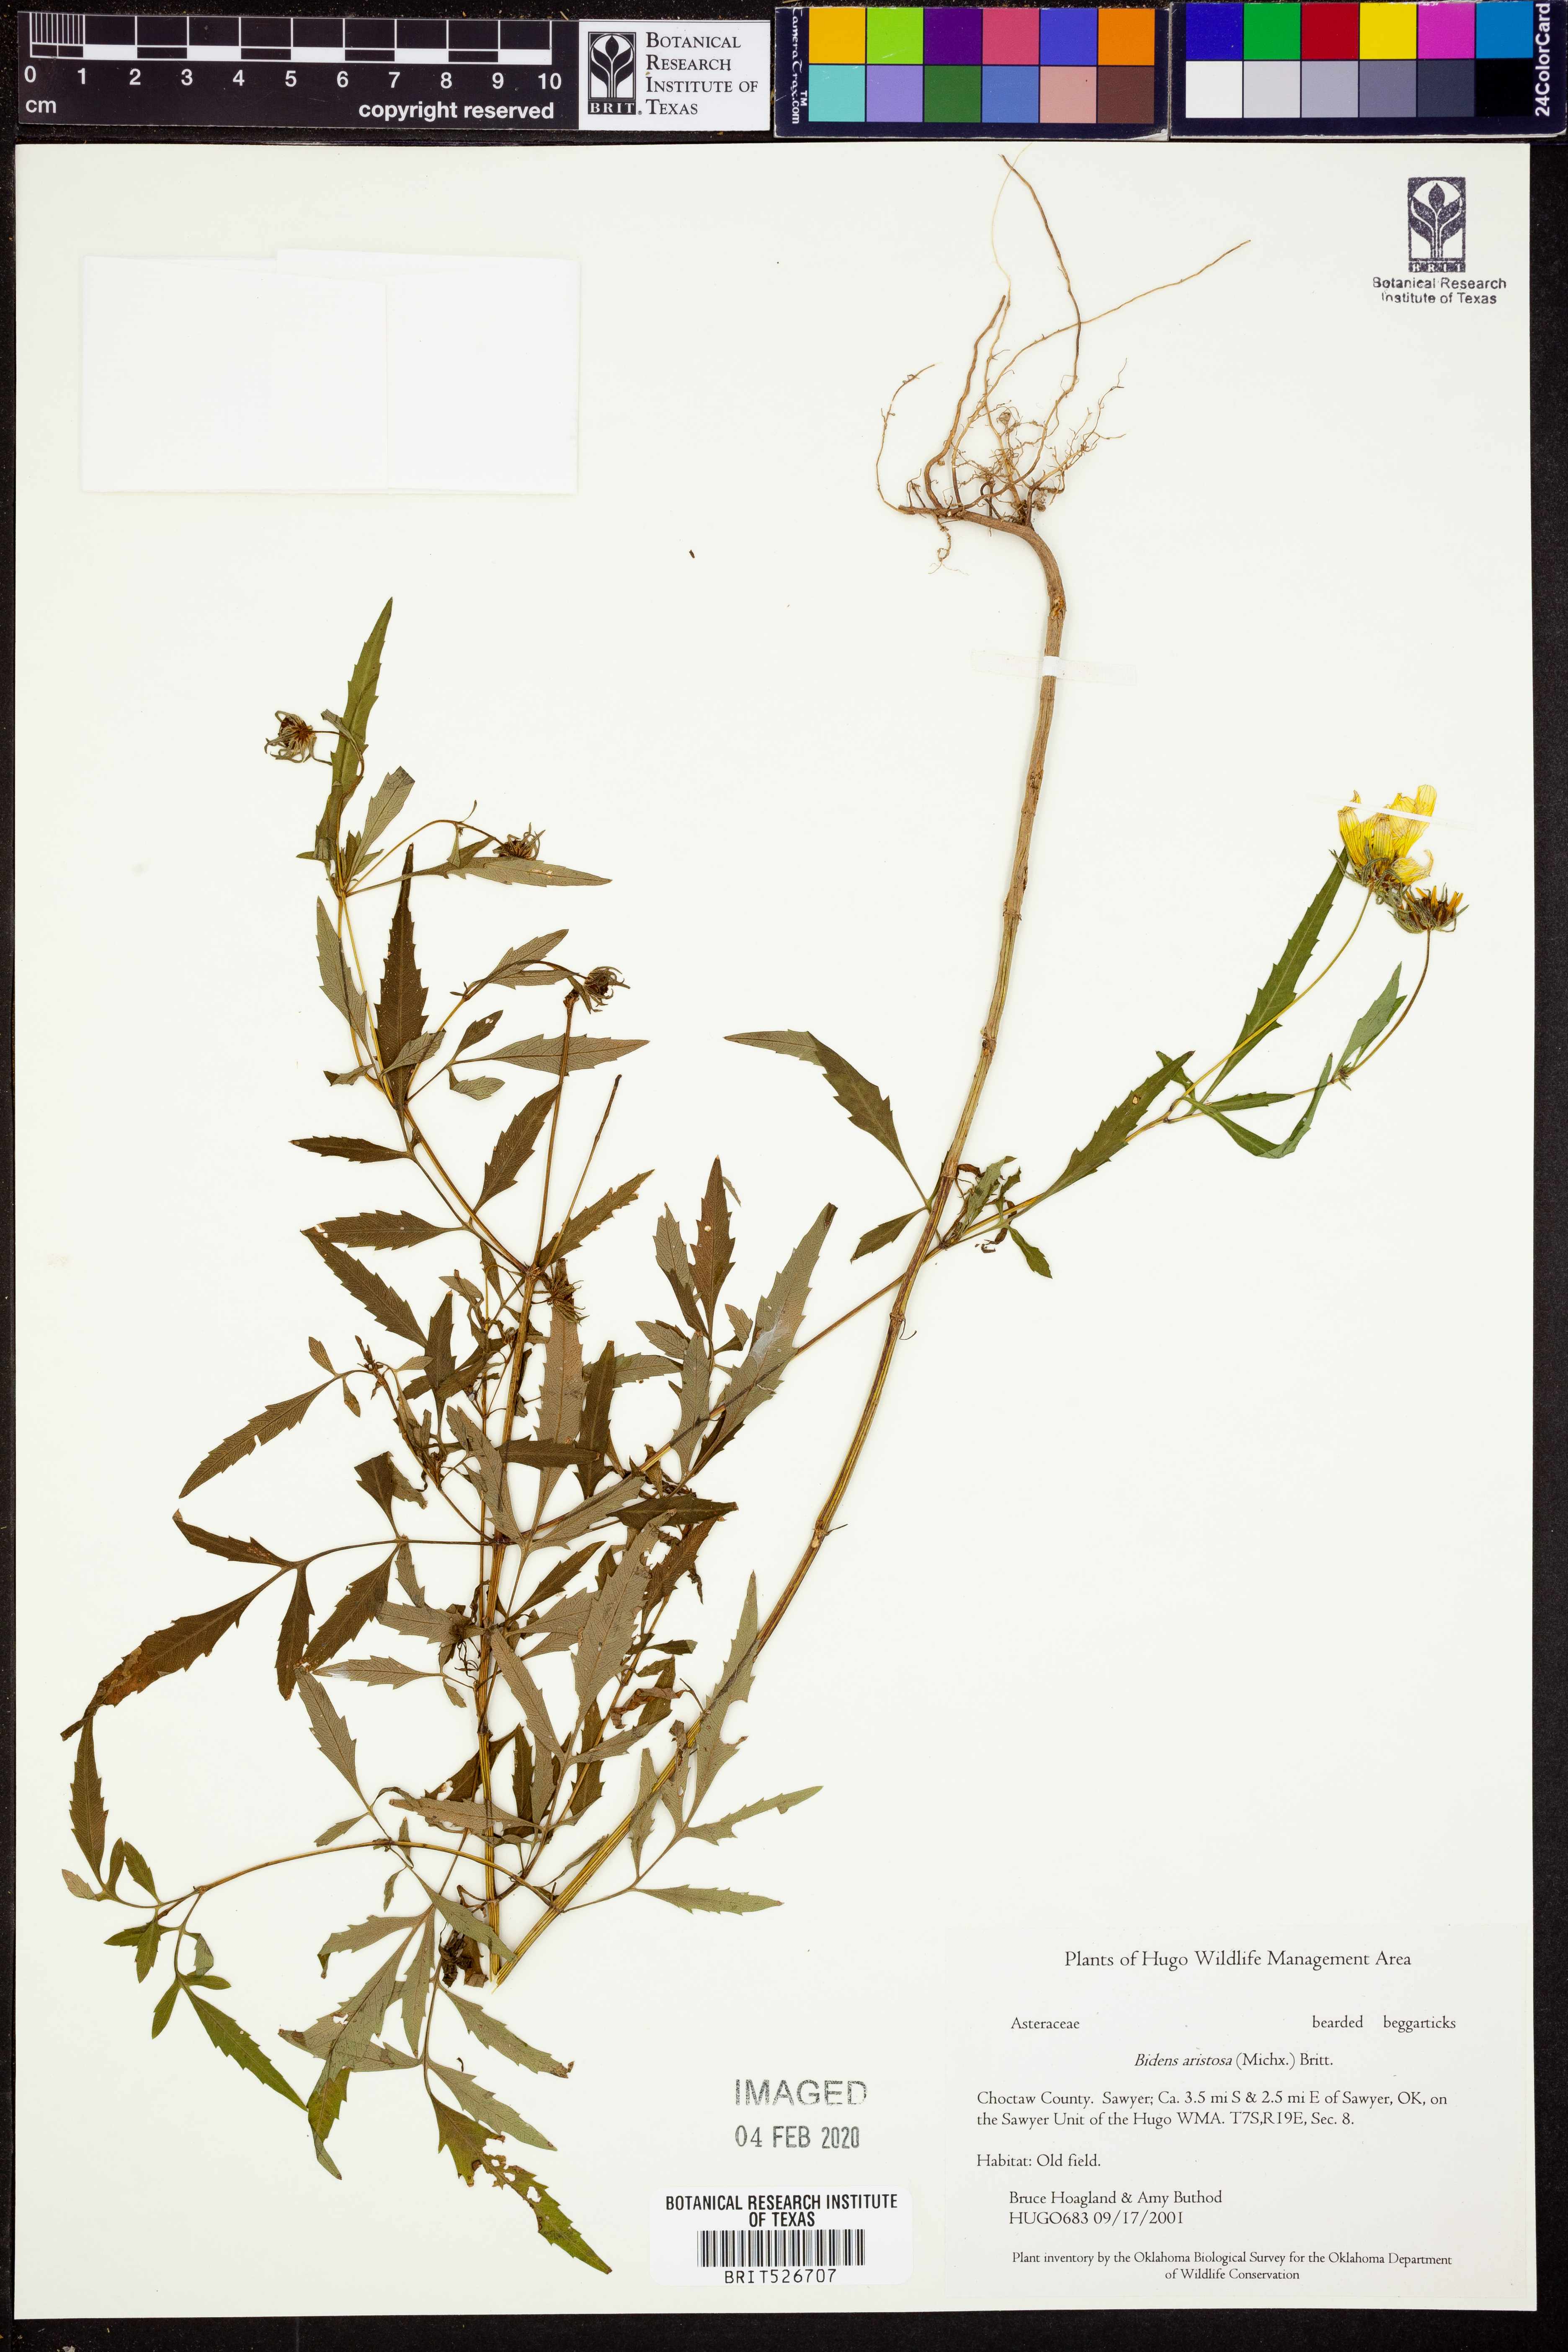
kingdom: Plantae
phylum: Tracheophyta
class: Magnoliopsida
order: Asterales
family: Asteraceae
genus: Bidens
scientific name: Bidens aristosa
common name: Western tickseed
